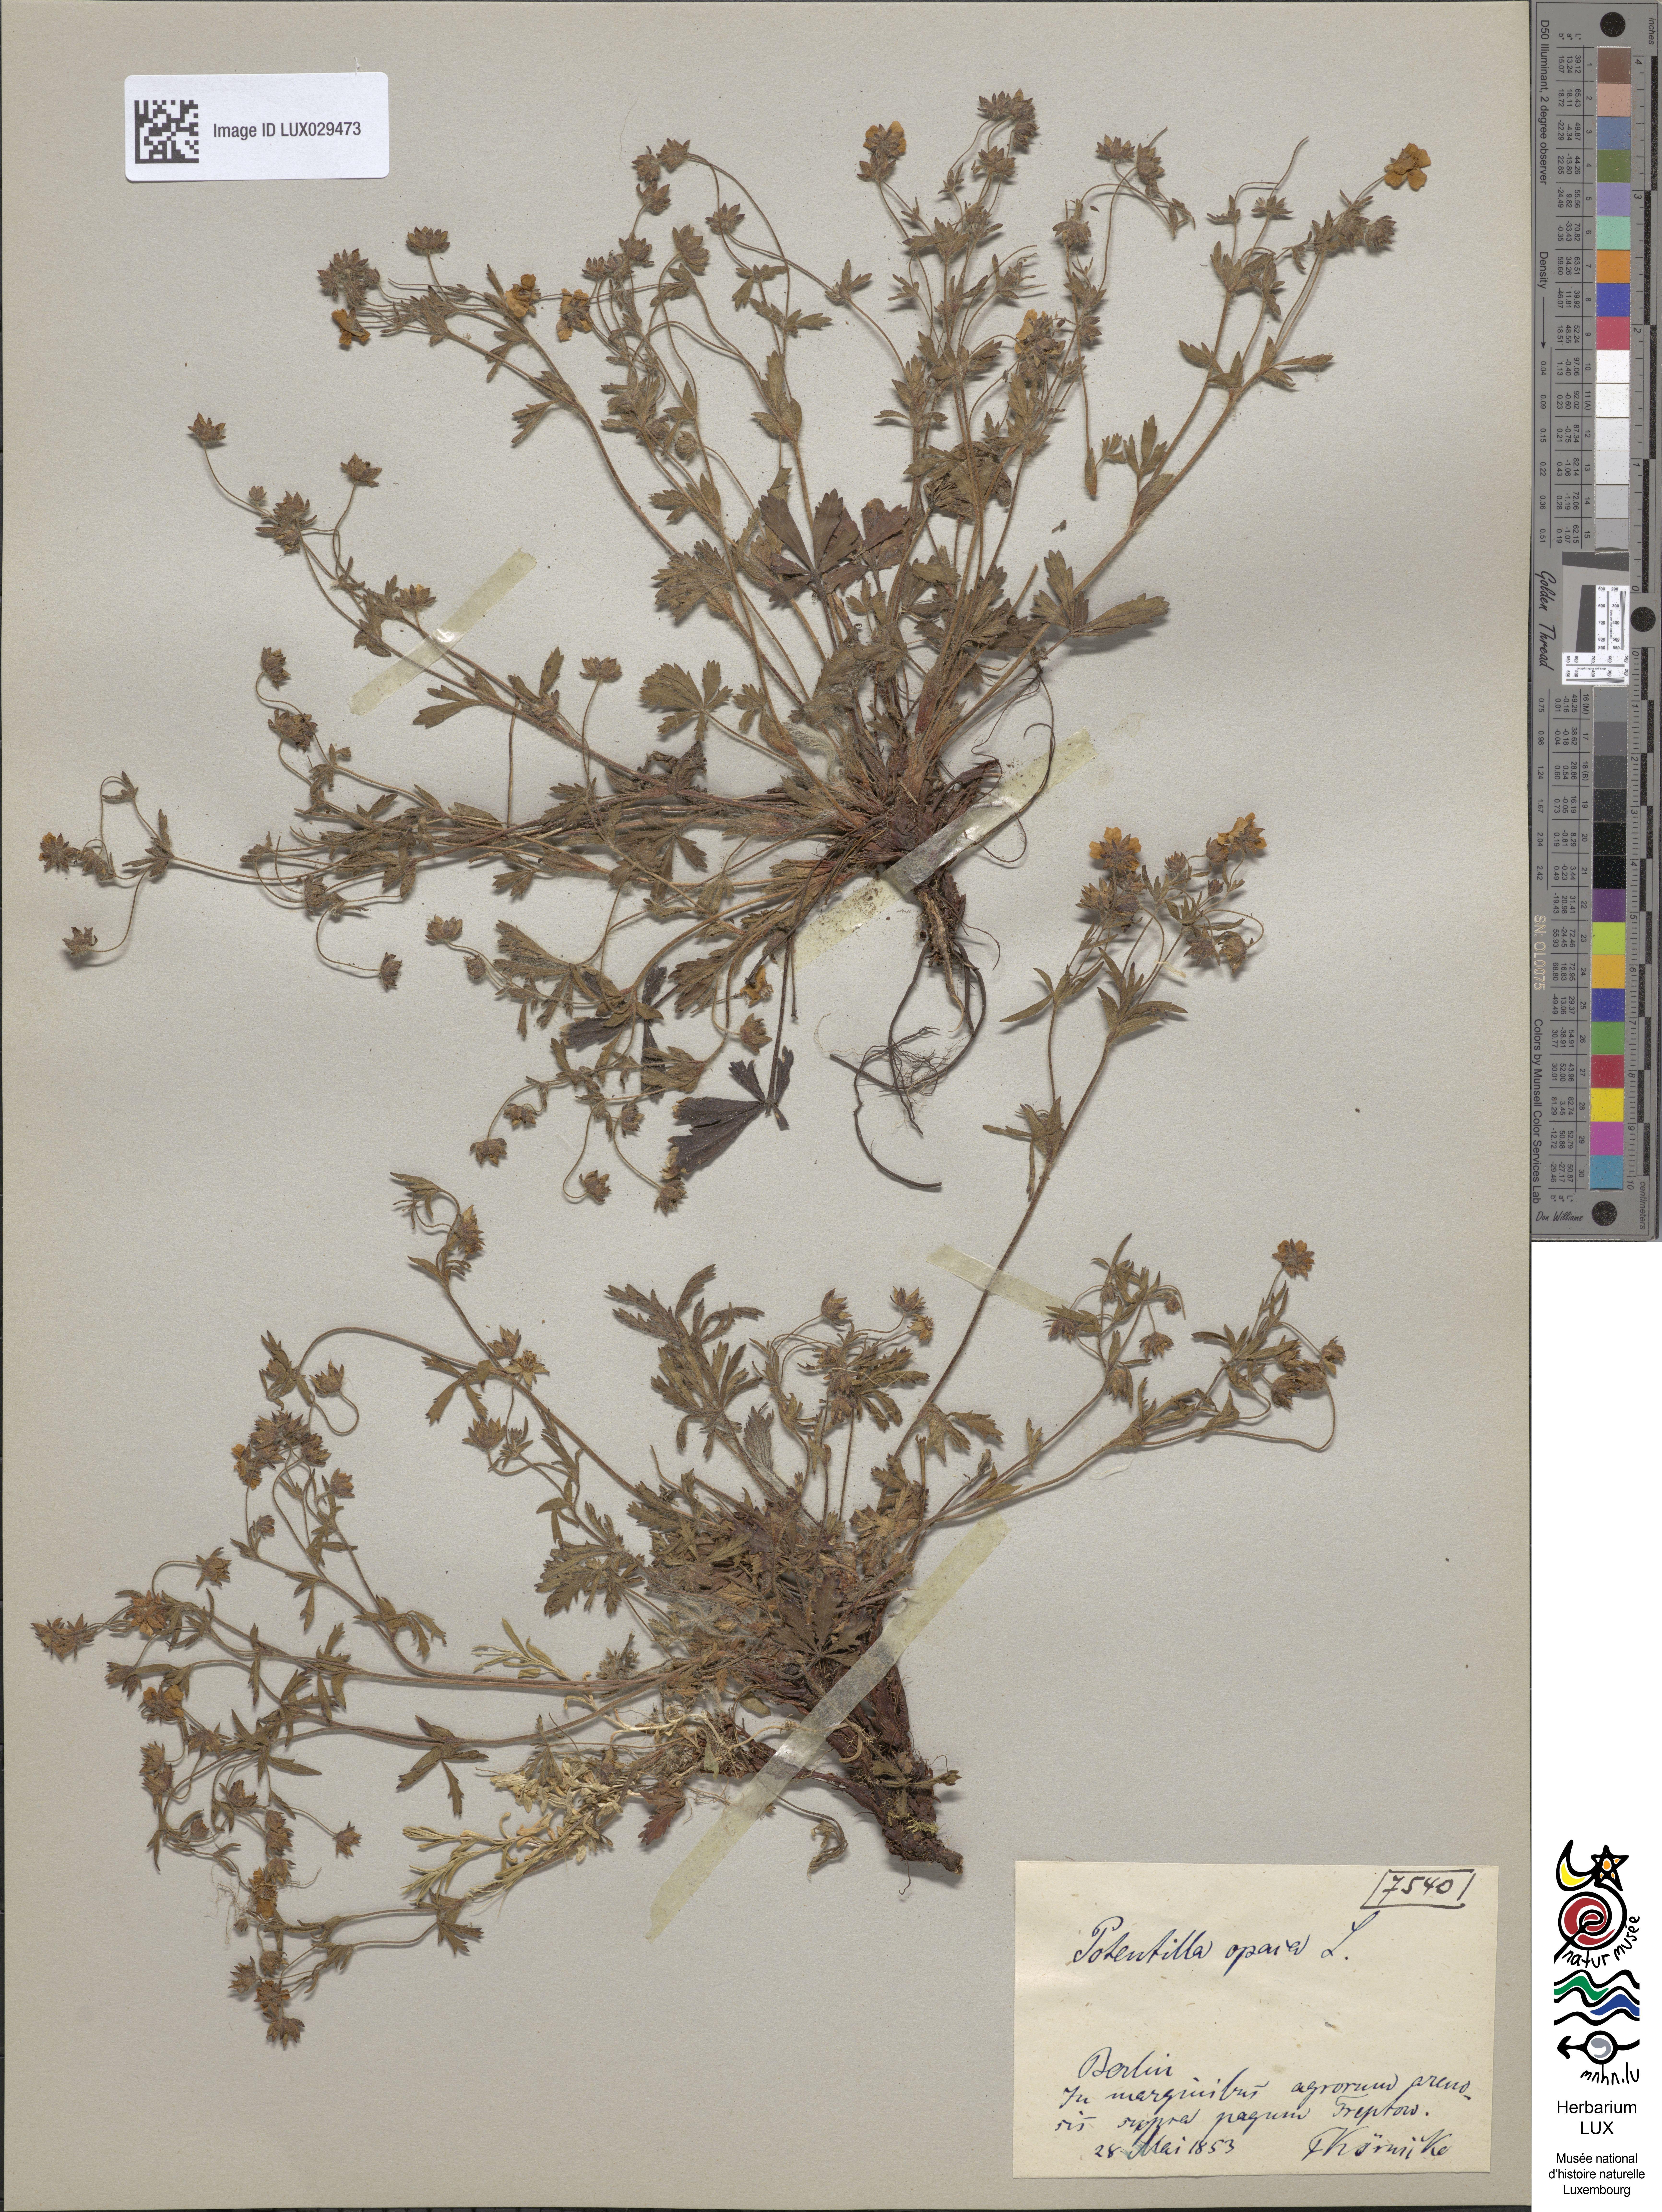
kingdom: Plantae
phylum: Tracheophyta
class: Magnoliopsida
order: Rosales
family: Rosaceae
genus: Potentilla
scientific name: Potentilla heptaphylla
